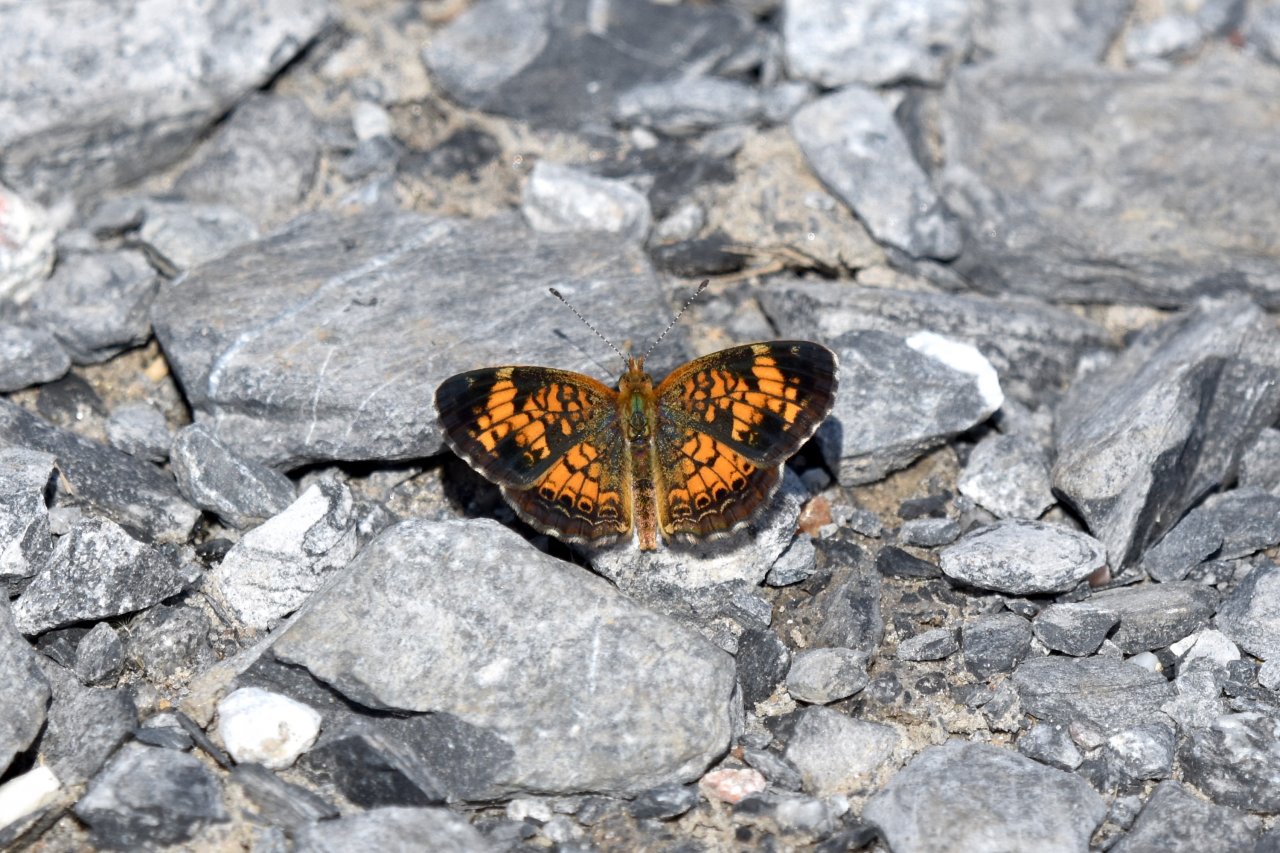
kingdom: Animalia
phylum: Arthropoda
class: Insecta
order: Lepidoptera
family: Nymphalidae
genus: Phyciodes
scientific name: Phyciodes tharos
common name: Pearl Crescent
